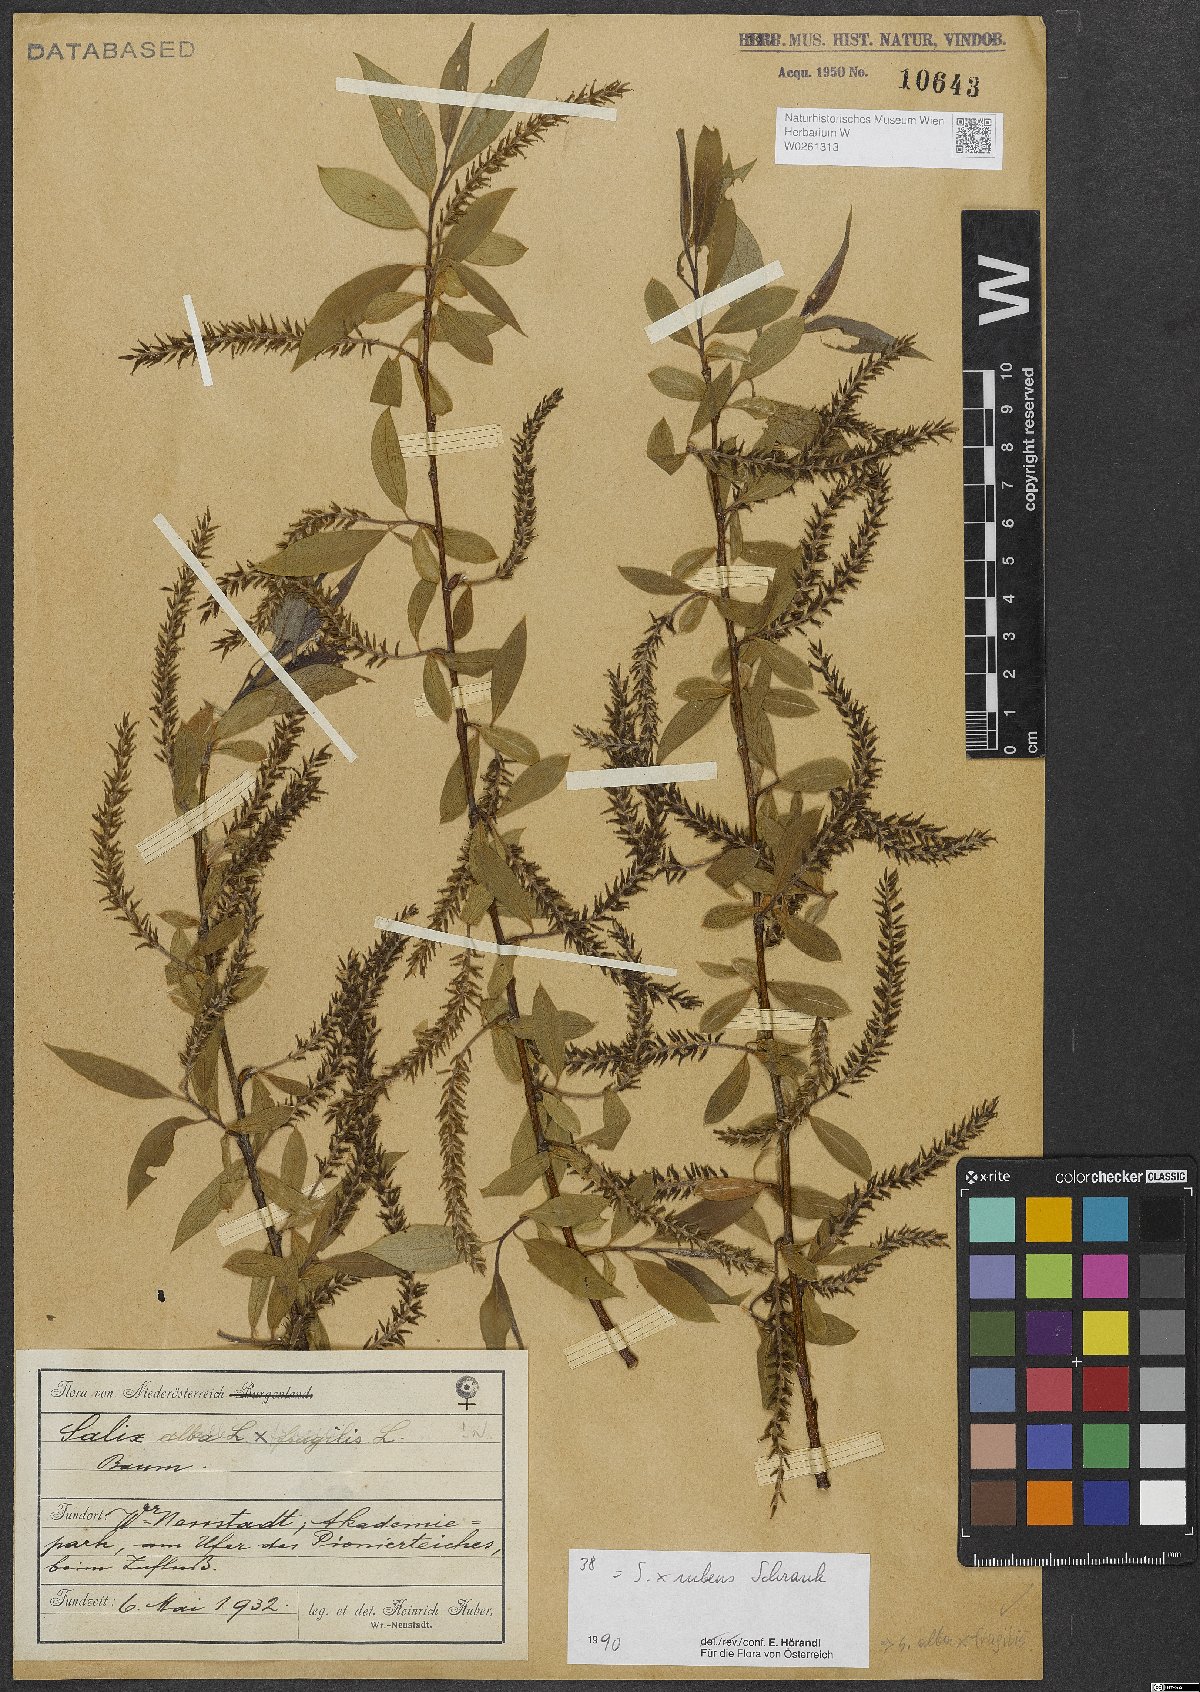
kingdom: Plantae
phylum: Tracheophyta
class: Magnoliopsida
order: Malpighiales
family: Salicaceae
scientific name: Salicaceae
